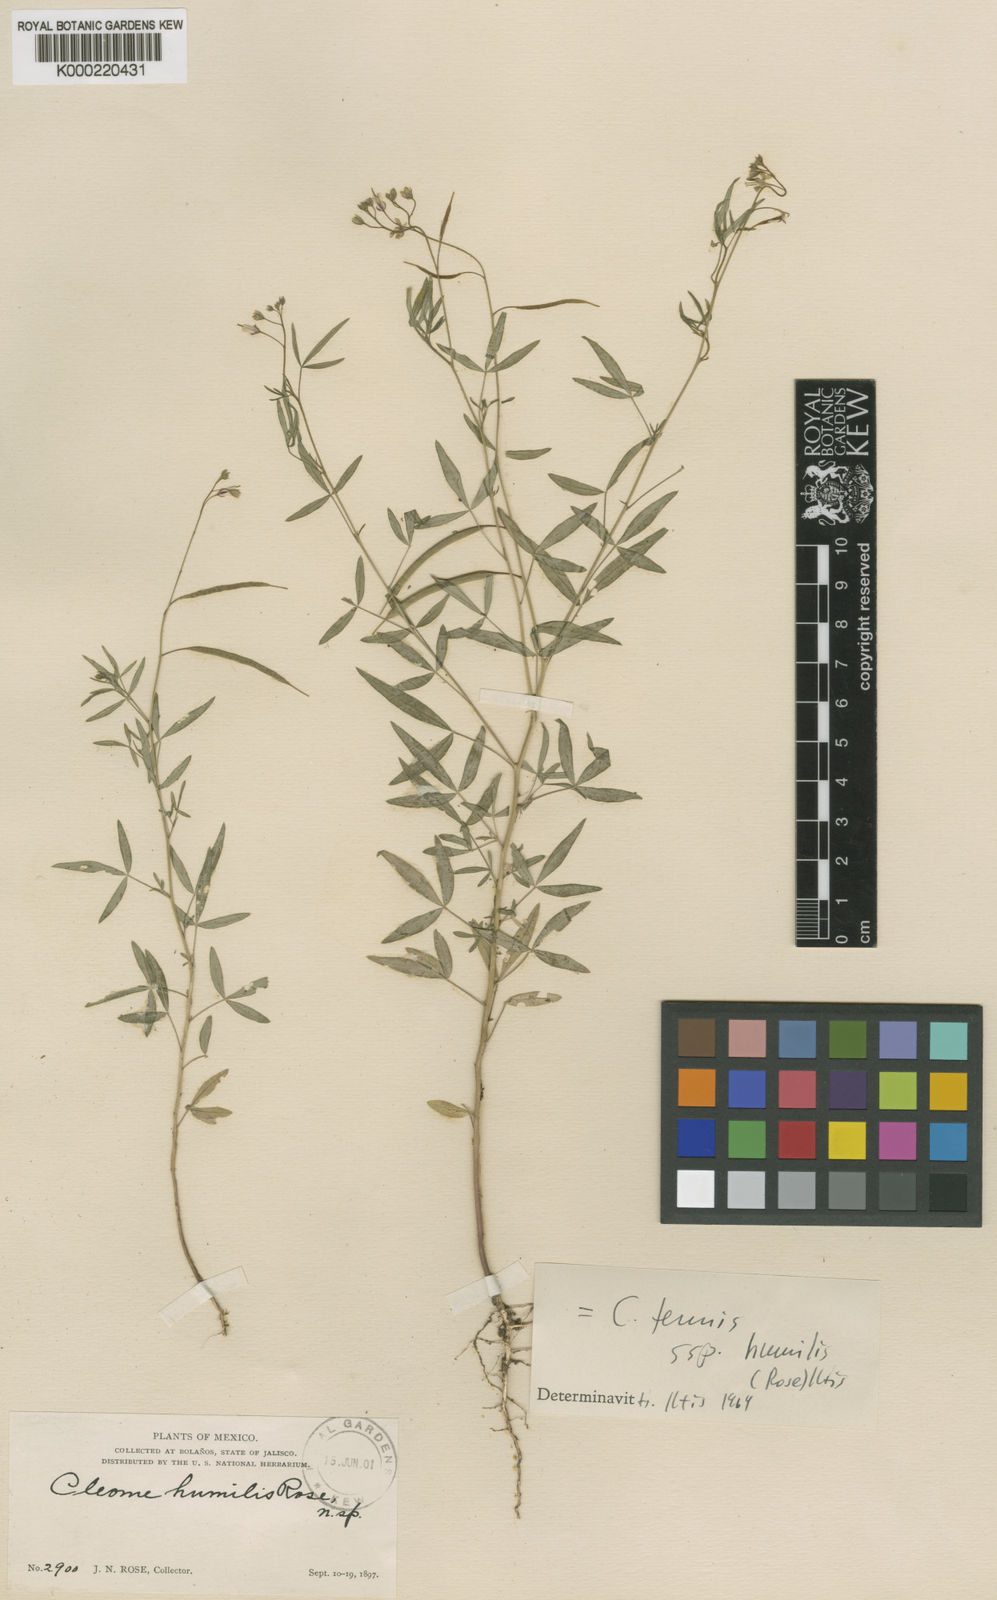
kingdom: Plantae
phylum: Tracheophyta
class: Magnoliopsida
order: Brassicales
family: Cleomaceae
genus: Iltisiella
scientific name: Iltisiella humilis
